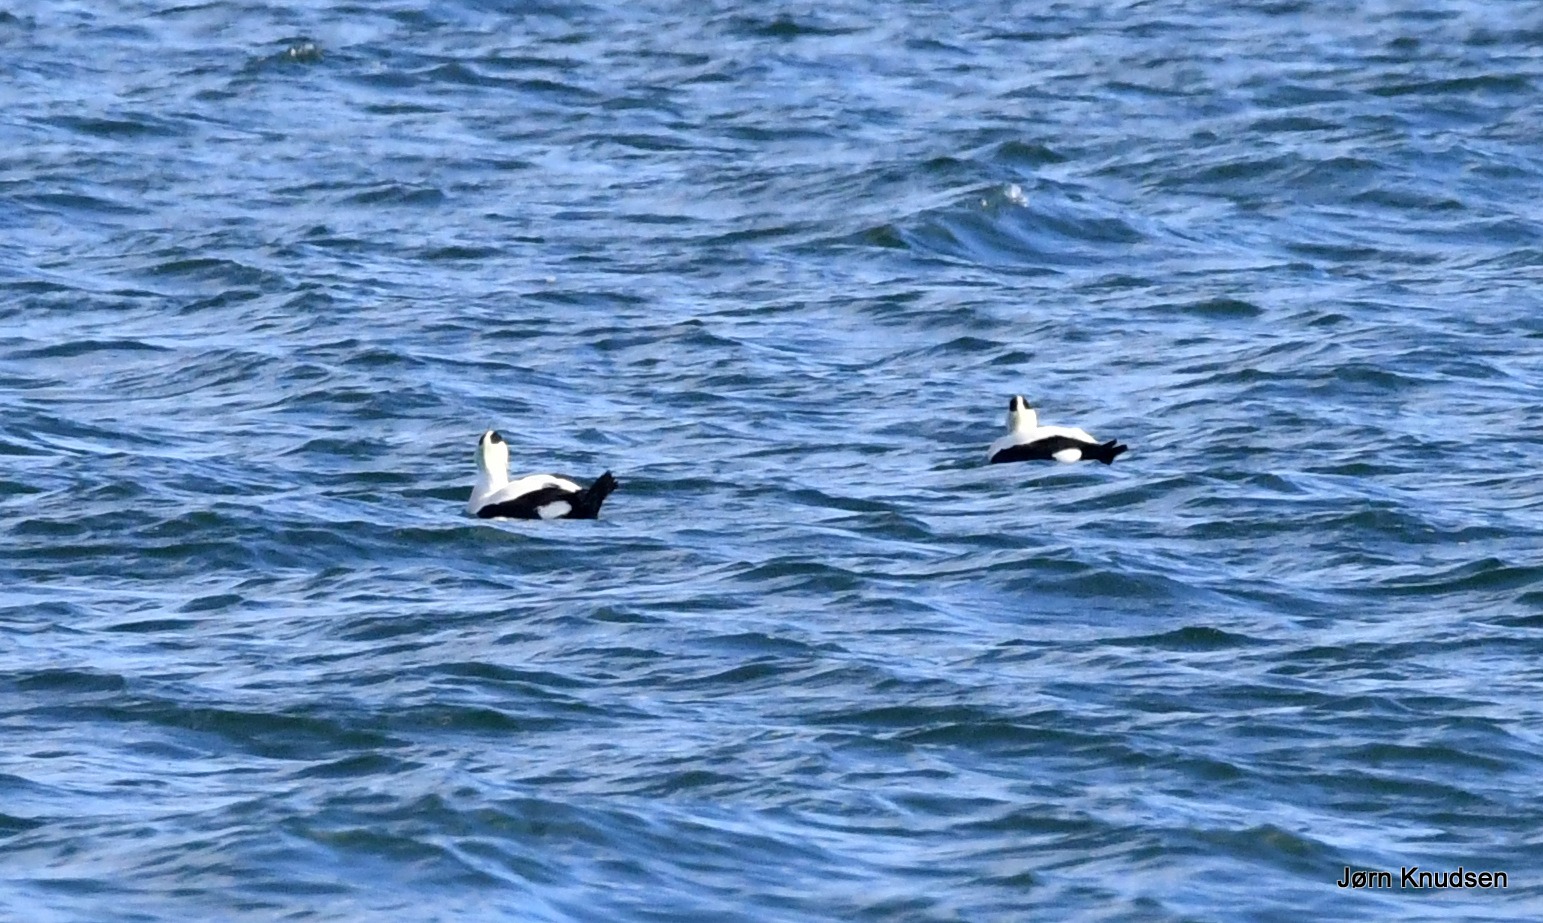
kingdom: Animalia
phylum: Chordata
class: Aves
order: Anseriformes
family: Anatidae
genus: Somateria
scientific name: Somateria mollissima
